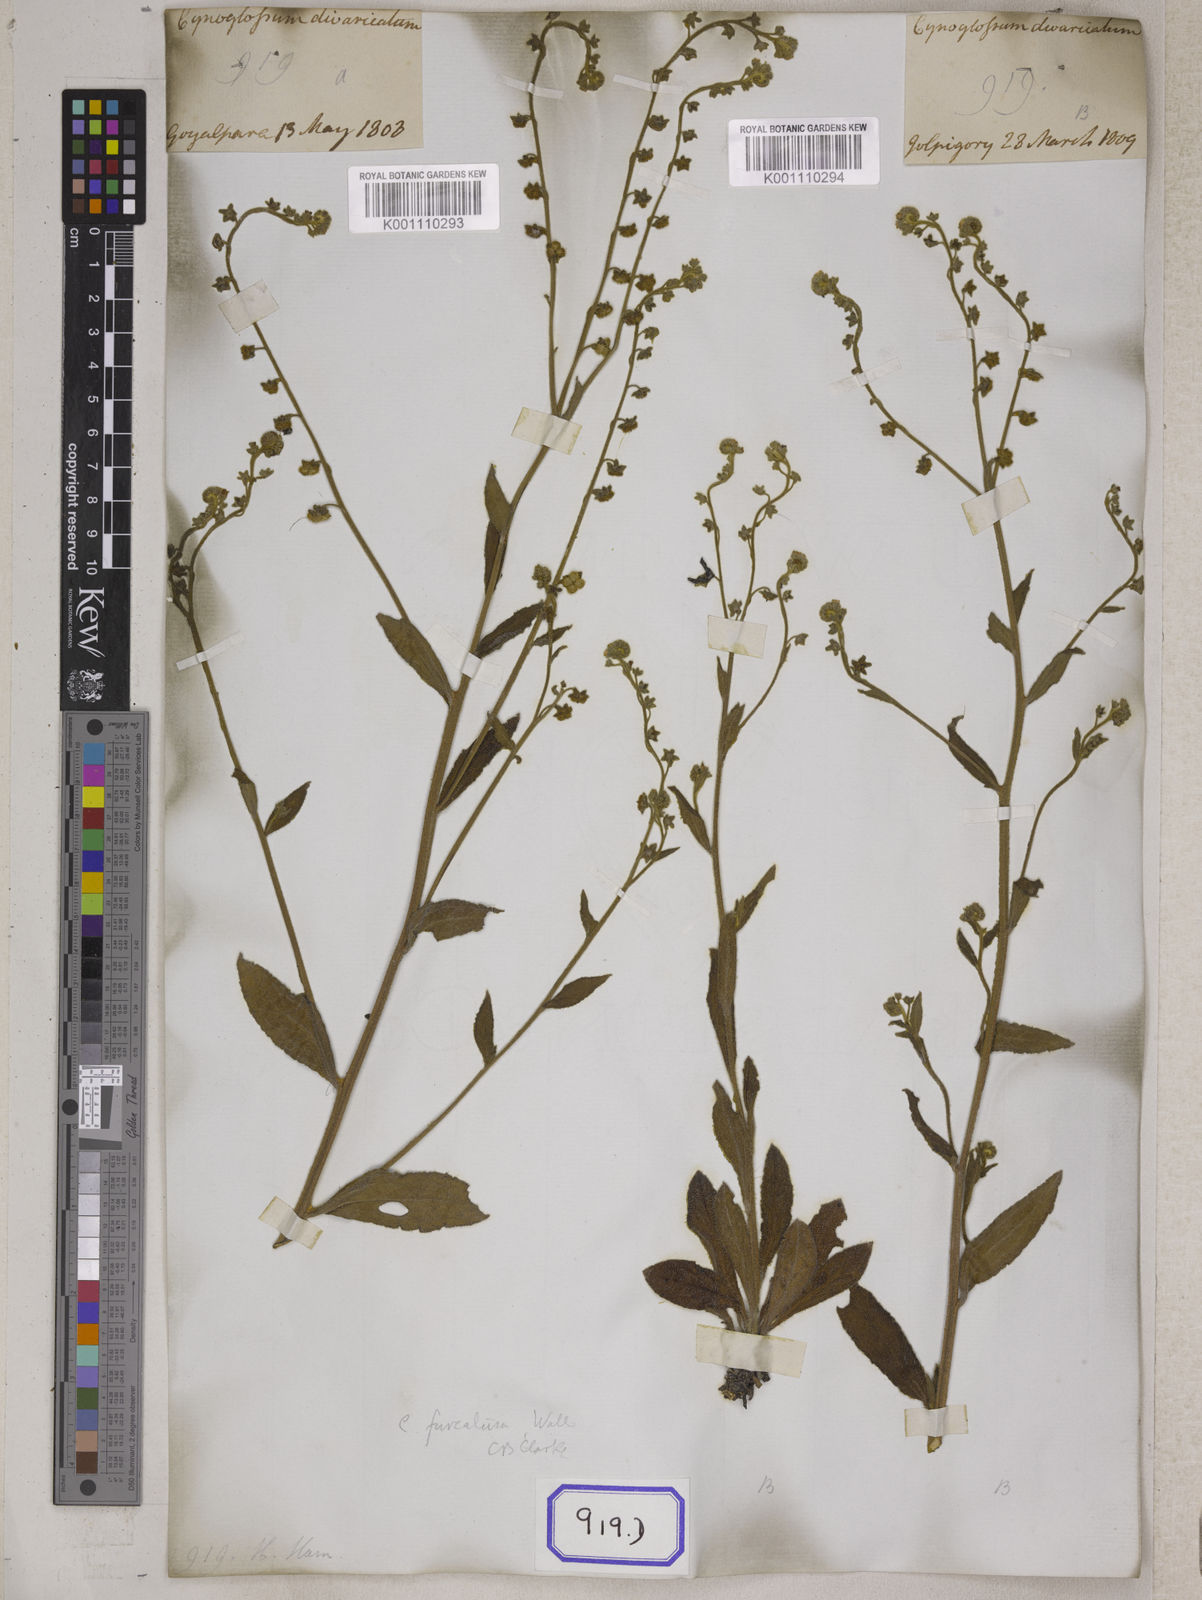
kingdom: Plantae
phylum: Tracheophyta
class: Magnoliopsida
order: Boraginales
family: Boraginaceae
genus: Rochelia
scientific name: Rochelia zeylanica
